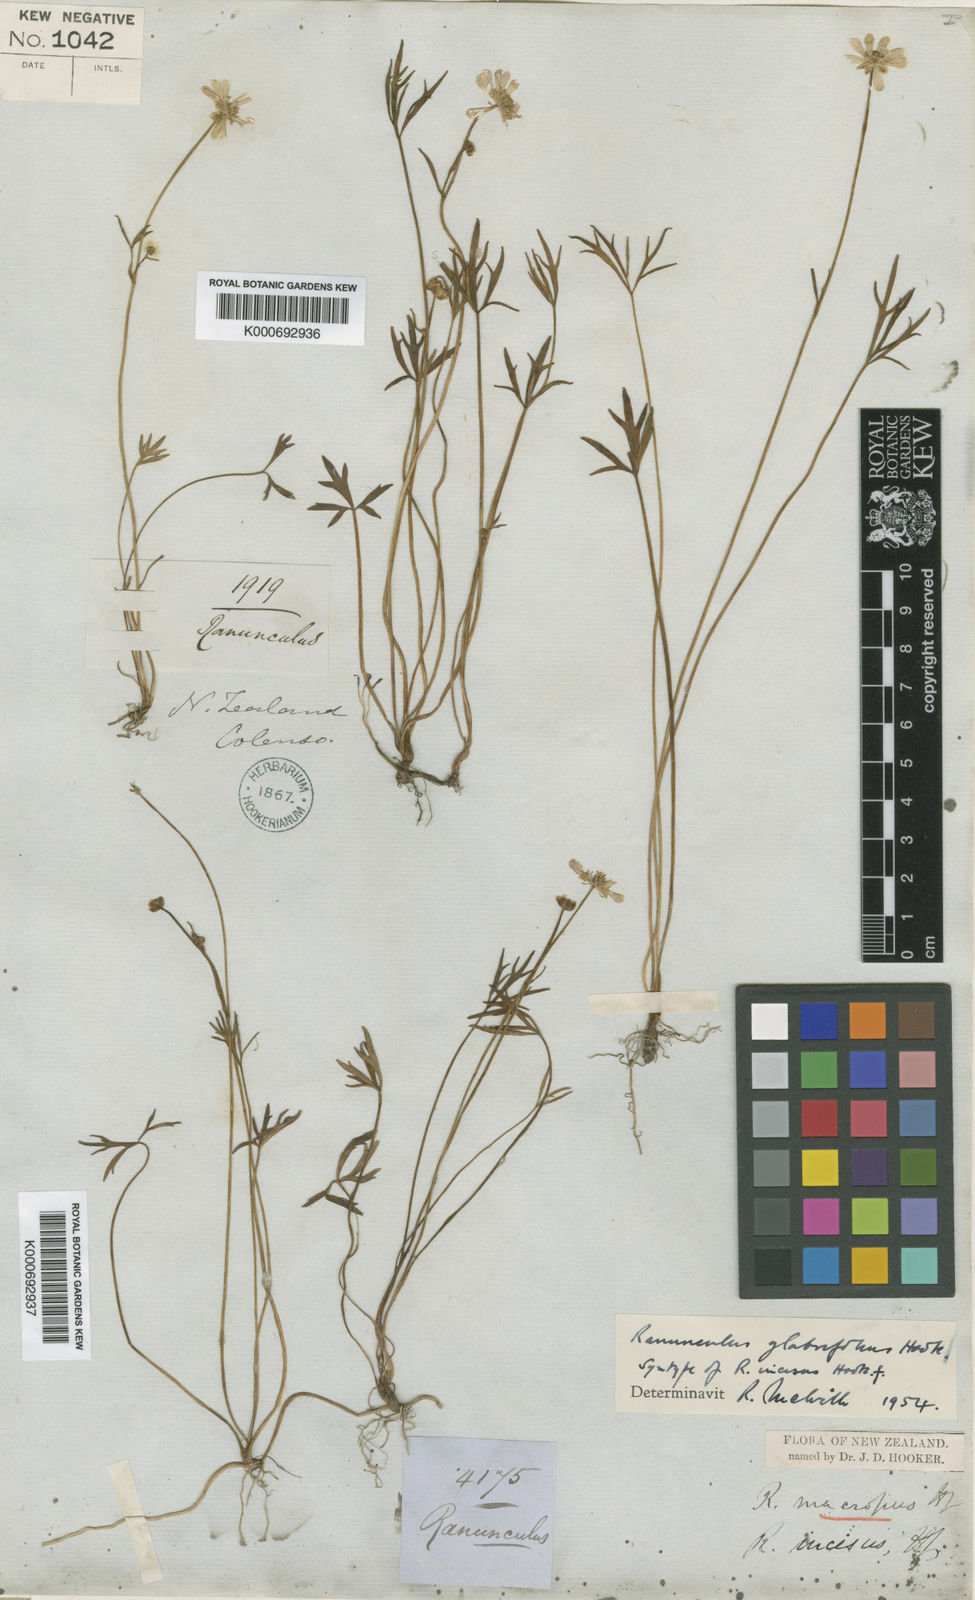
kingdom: Plantae
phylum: Tracheophyta
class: Magnoliopsida
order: Ranunculales
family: Ranunculaceae
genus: Ranunculus
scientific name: Ranunculus glabrifolius
